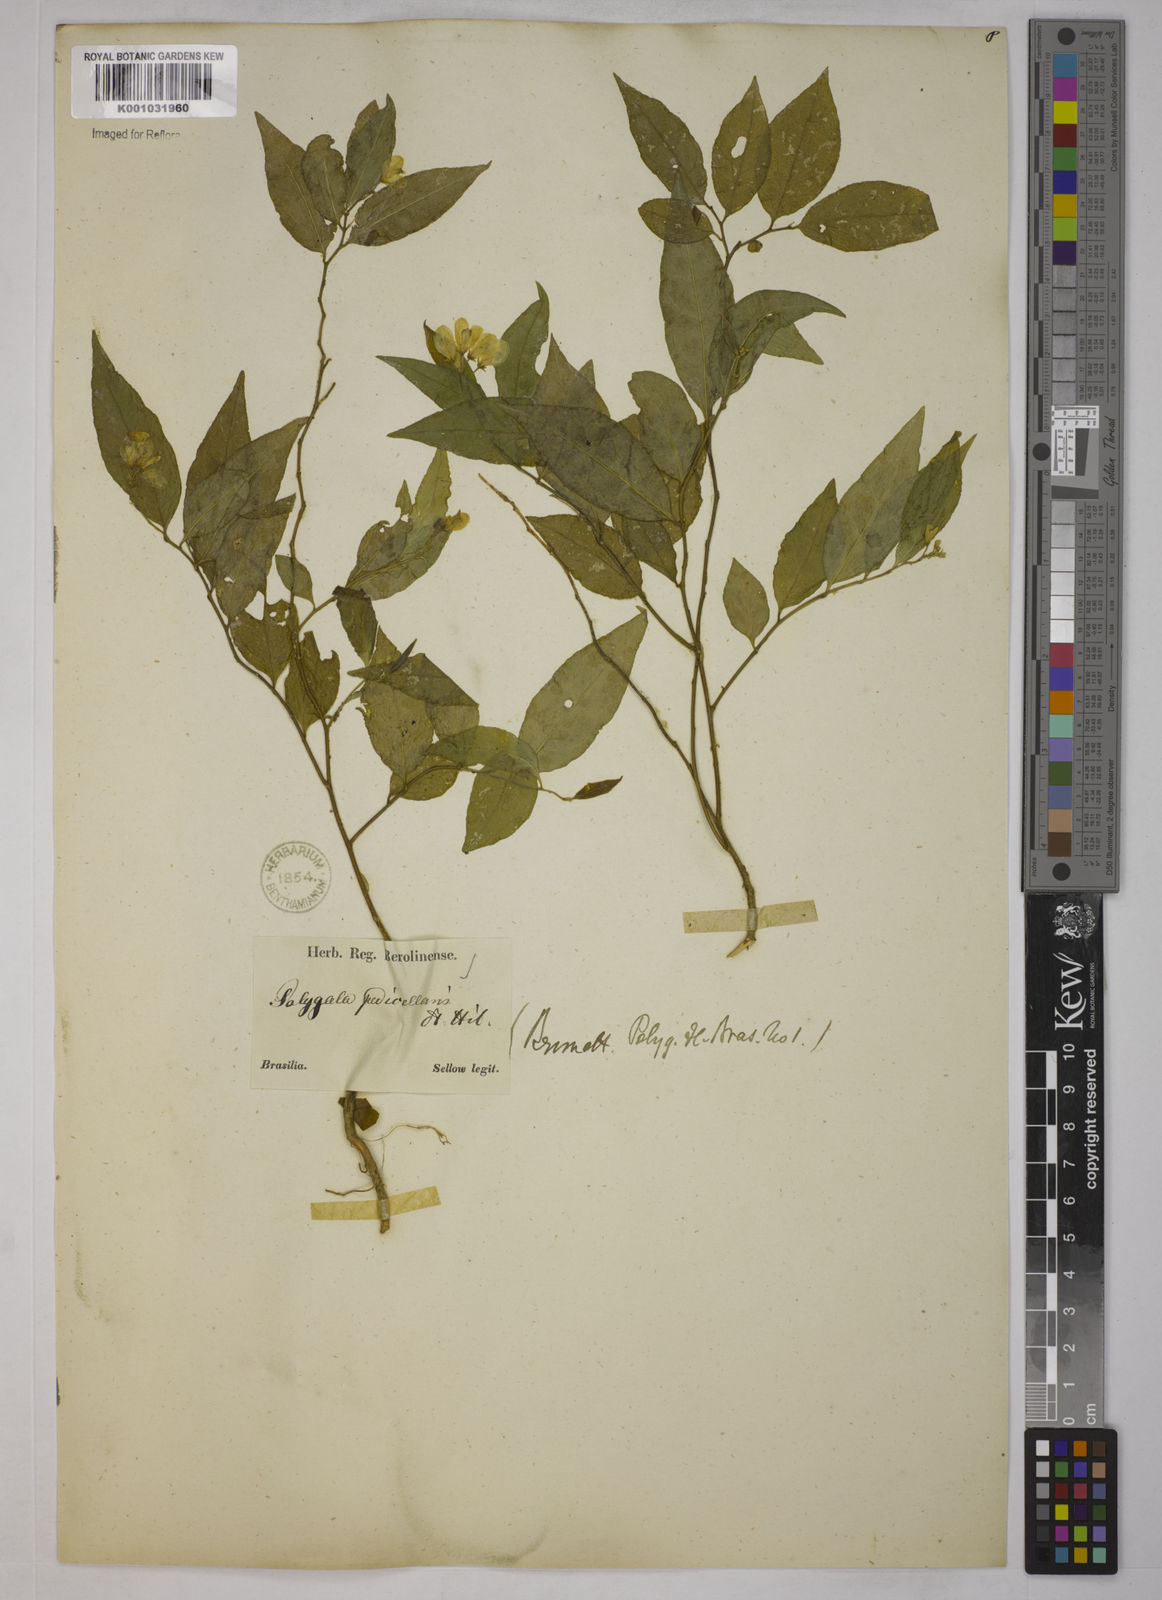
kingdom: Plantae
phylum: Tracheophyta
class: Magnoliopsida
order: Fabales
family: Polygalaceae
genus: Gymnospora
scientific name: Gymnospora blanchetii
